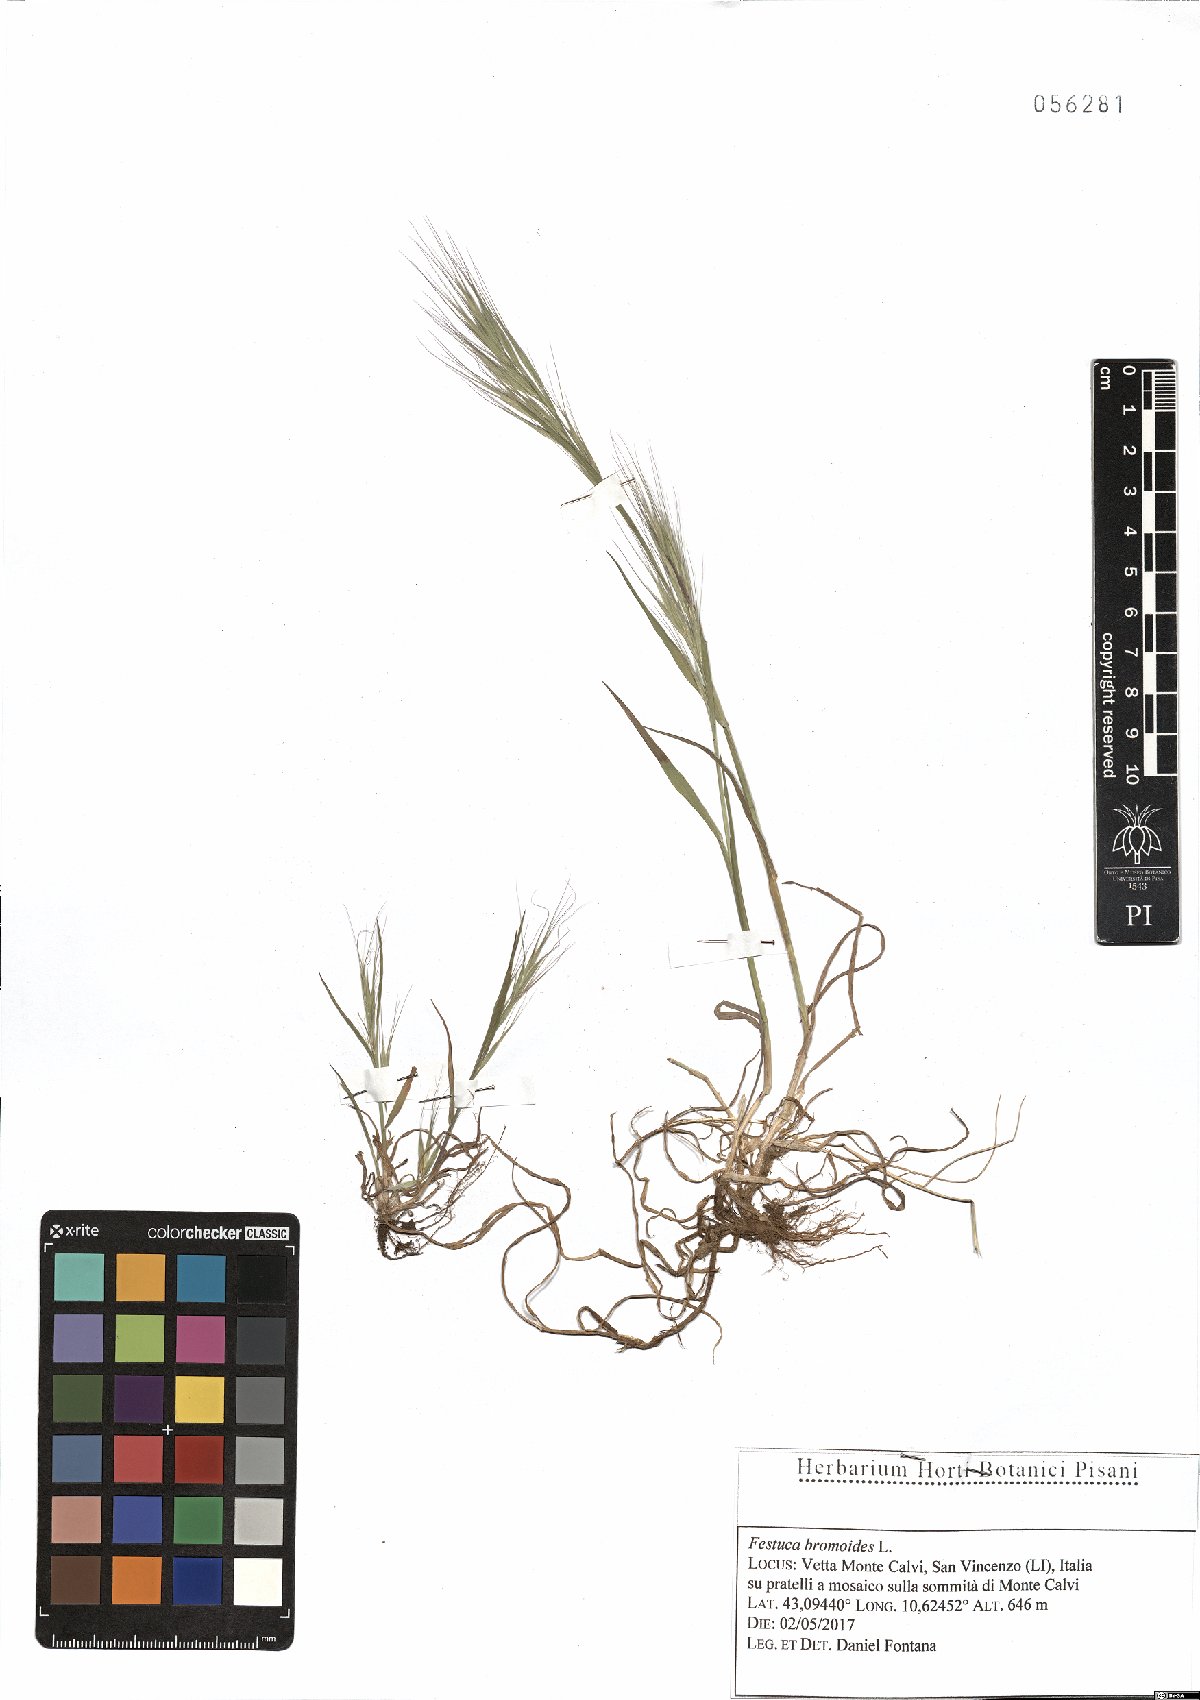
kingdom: Plantae
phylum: Tracheophyta
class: Liliopsida
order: Poales
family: Poaceae
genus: Festuca
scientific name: Festuca bromoides
